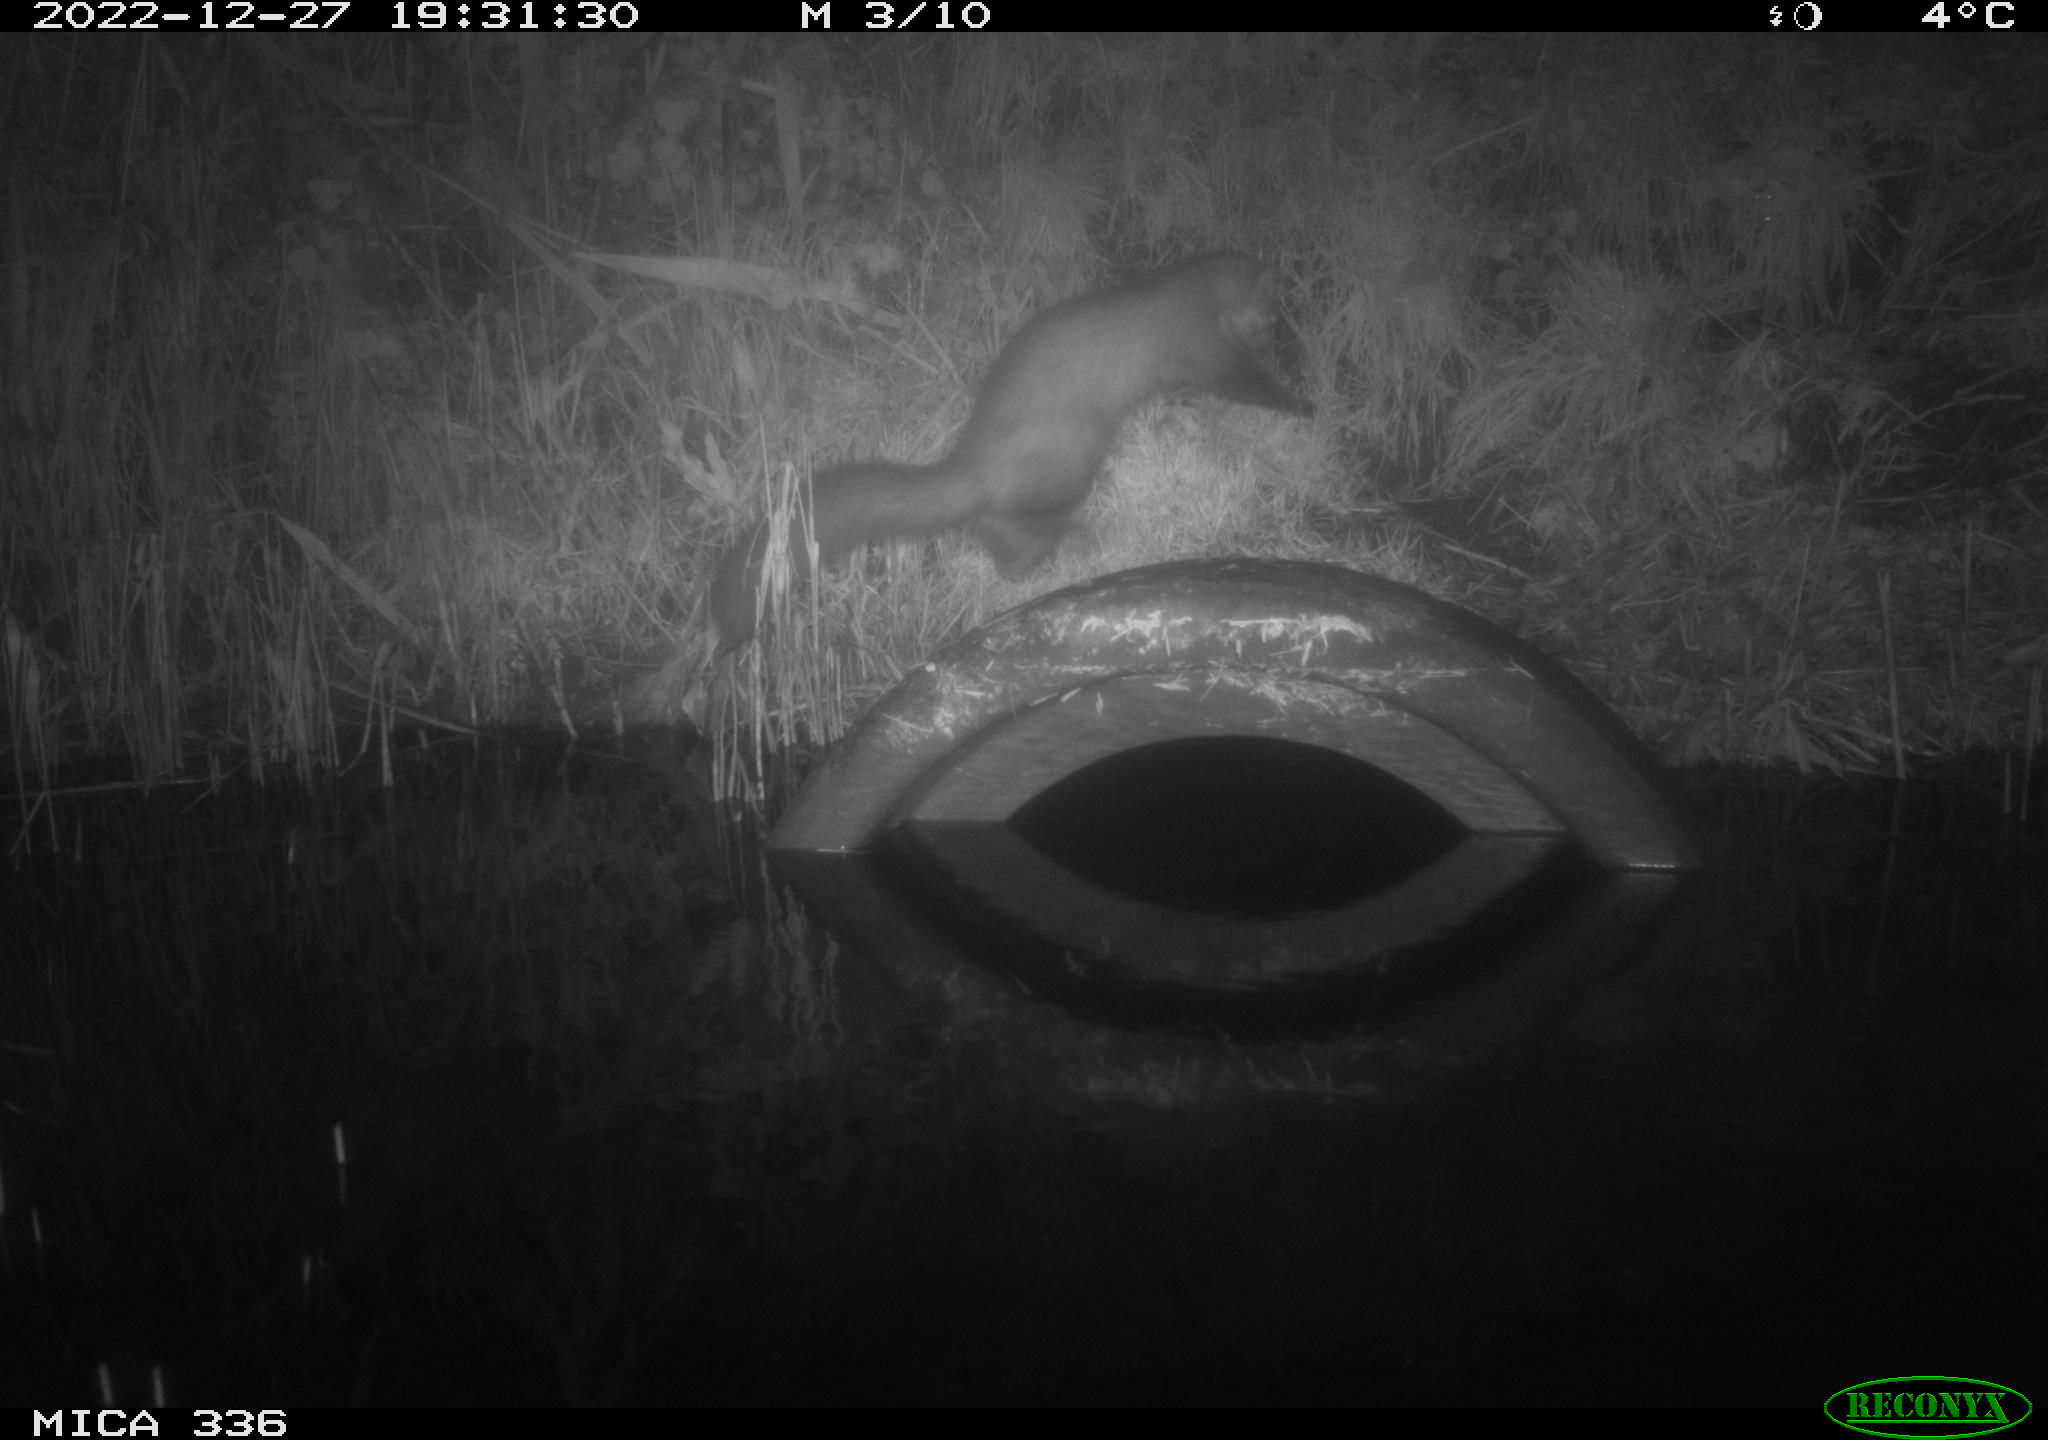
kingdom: Animalia
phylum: Chordata
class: Mammalia
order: Carnivora
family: Mustelidae
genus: Martes
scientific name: Martes foina
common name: Beech marten
